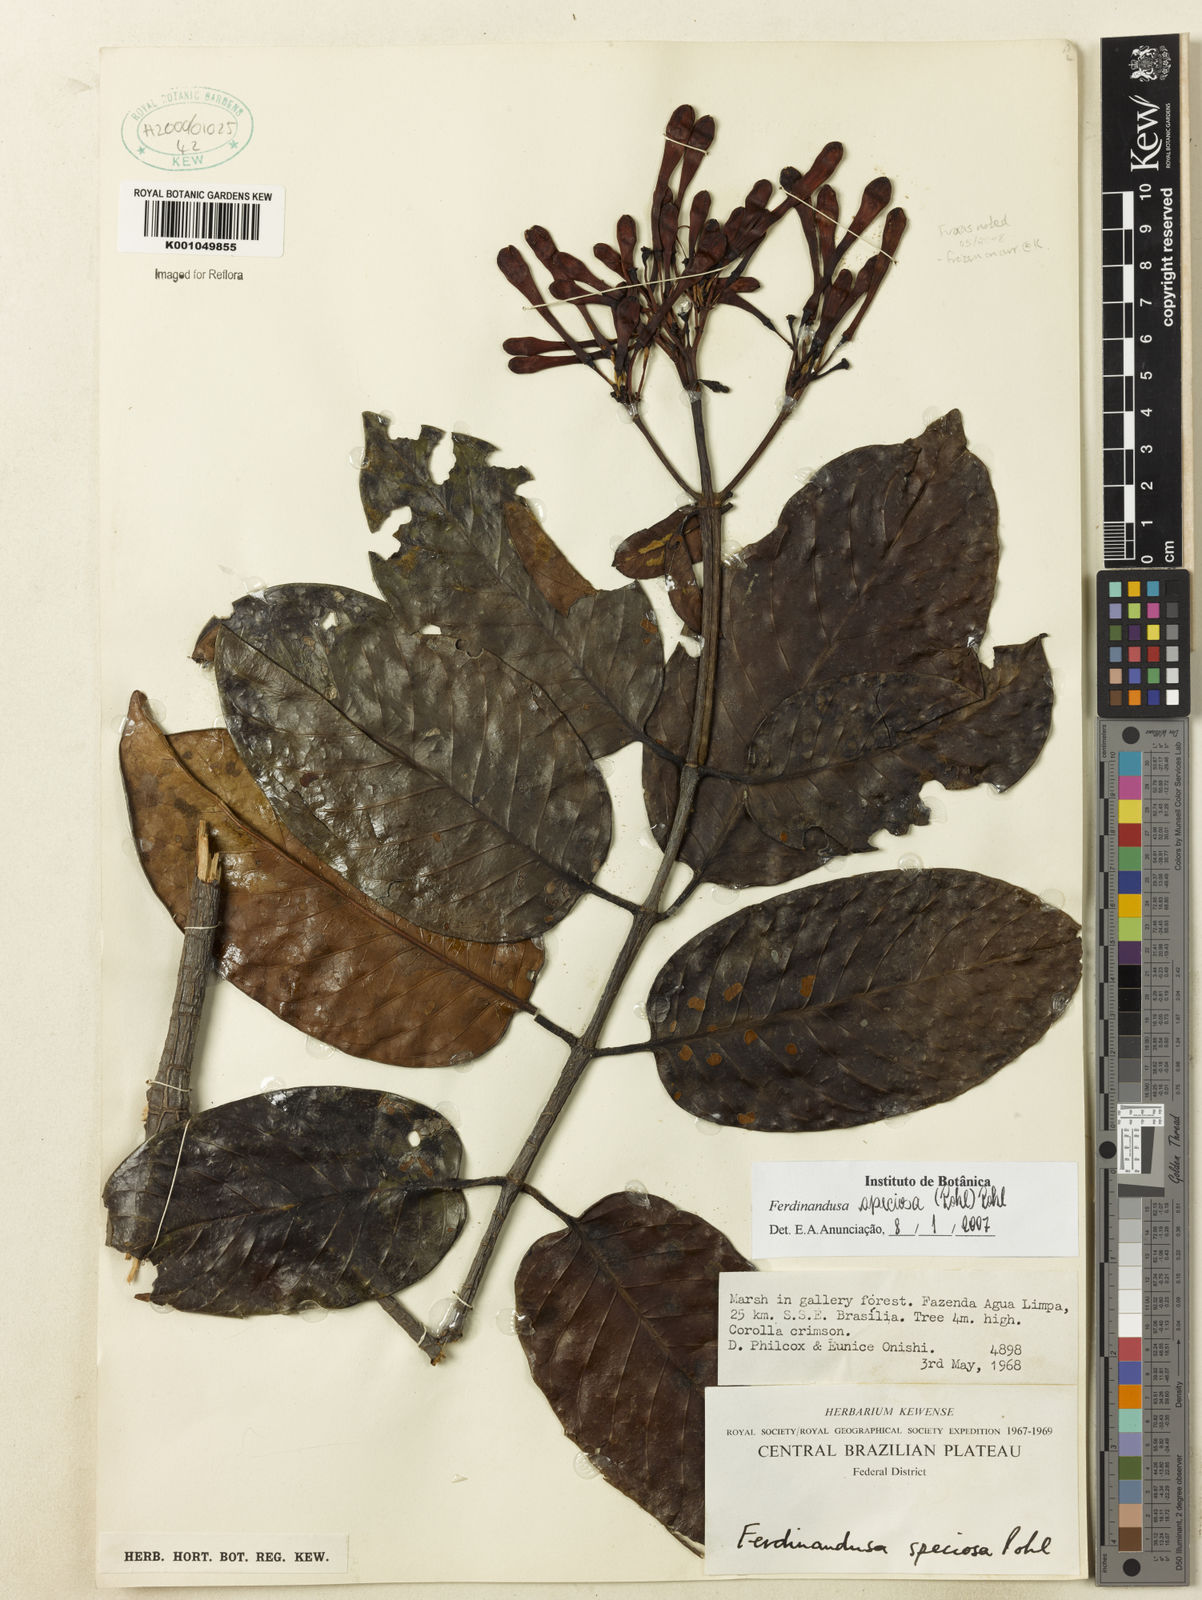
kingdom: Plantae
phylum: Tracheophyta
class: Magnoliopsida
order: Gentianales
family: Rubiaceae
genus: Ferdinandusa
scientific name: Ferdinandusa speciosa
